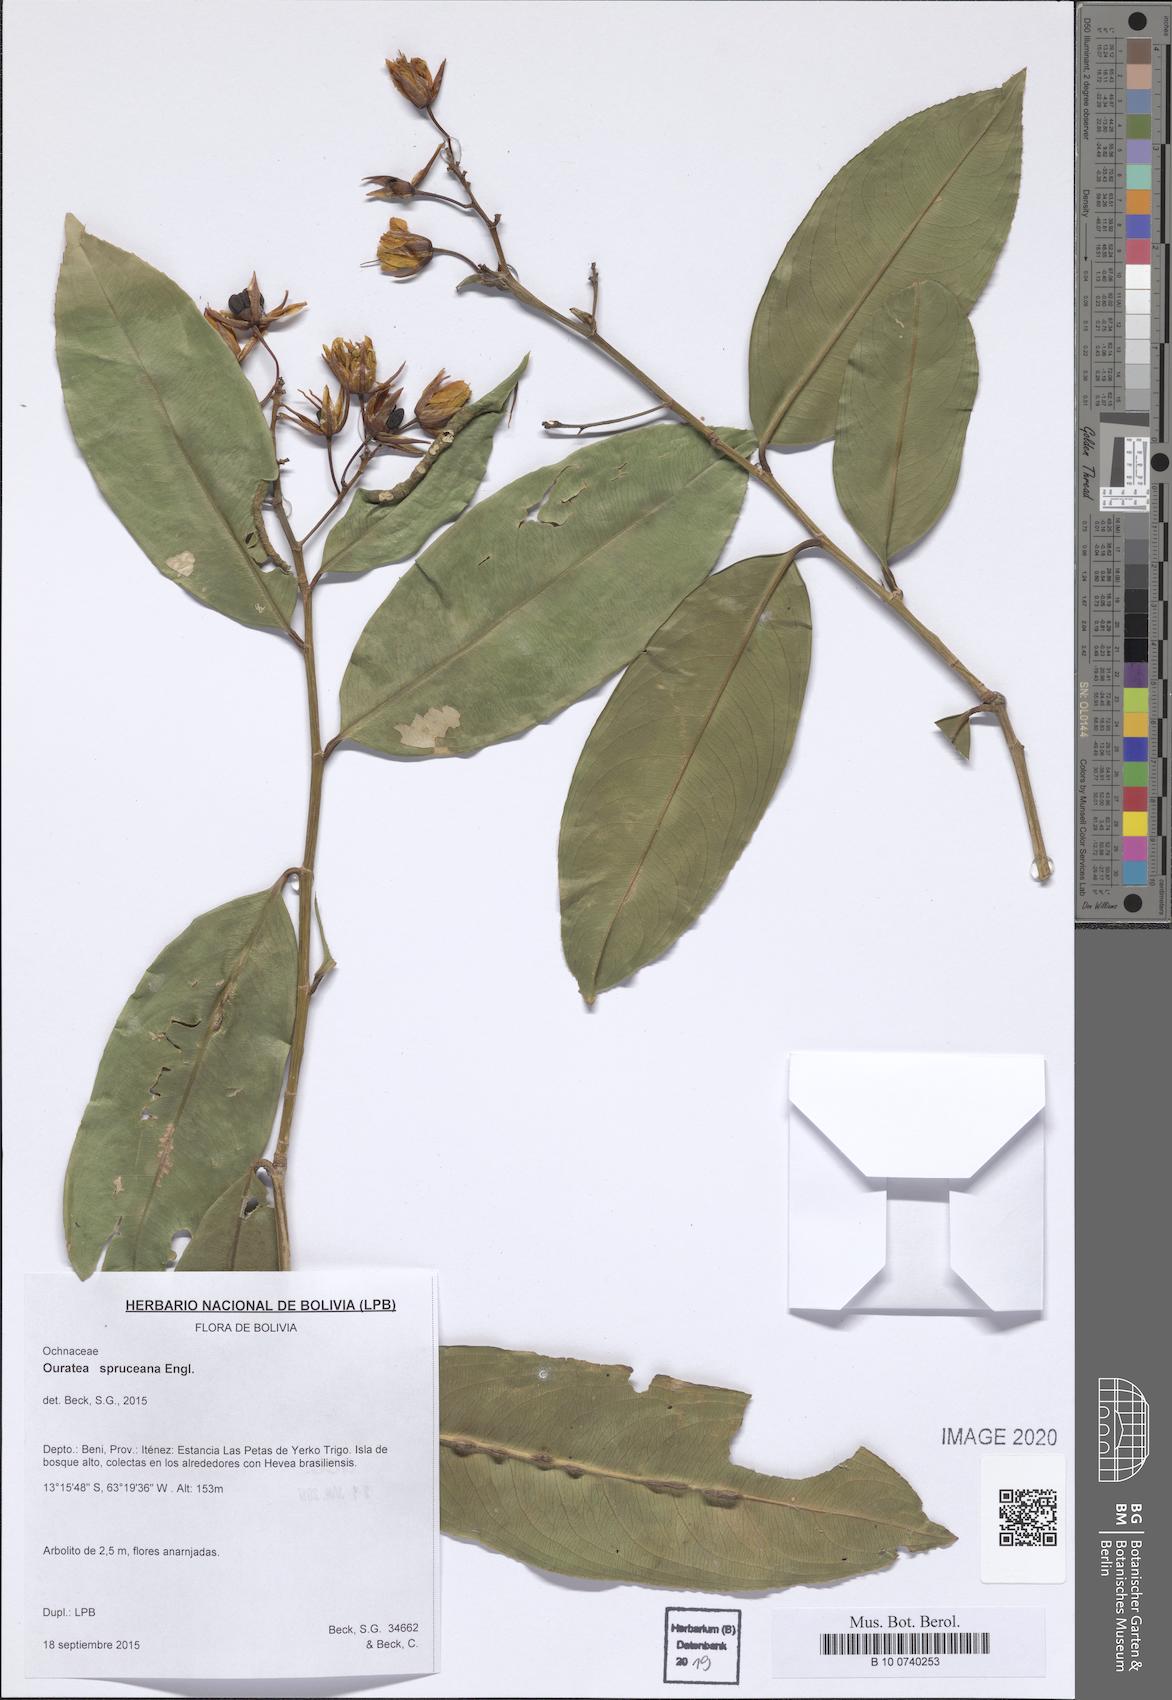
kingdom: Plantae
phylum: Tracheophyta
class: Magnoliopsida
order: Malpighiales
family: Ochnaceae
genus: Ouratea
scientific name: Ouratea spruceana
